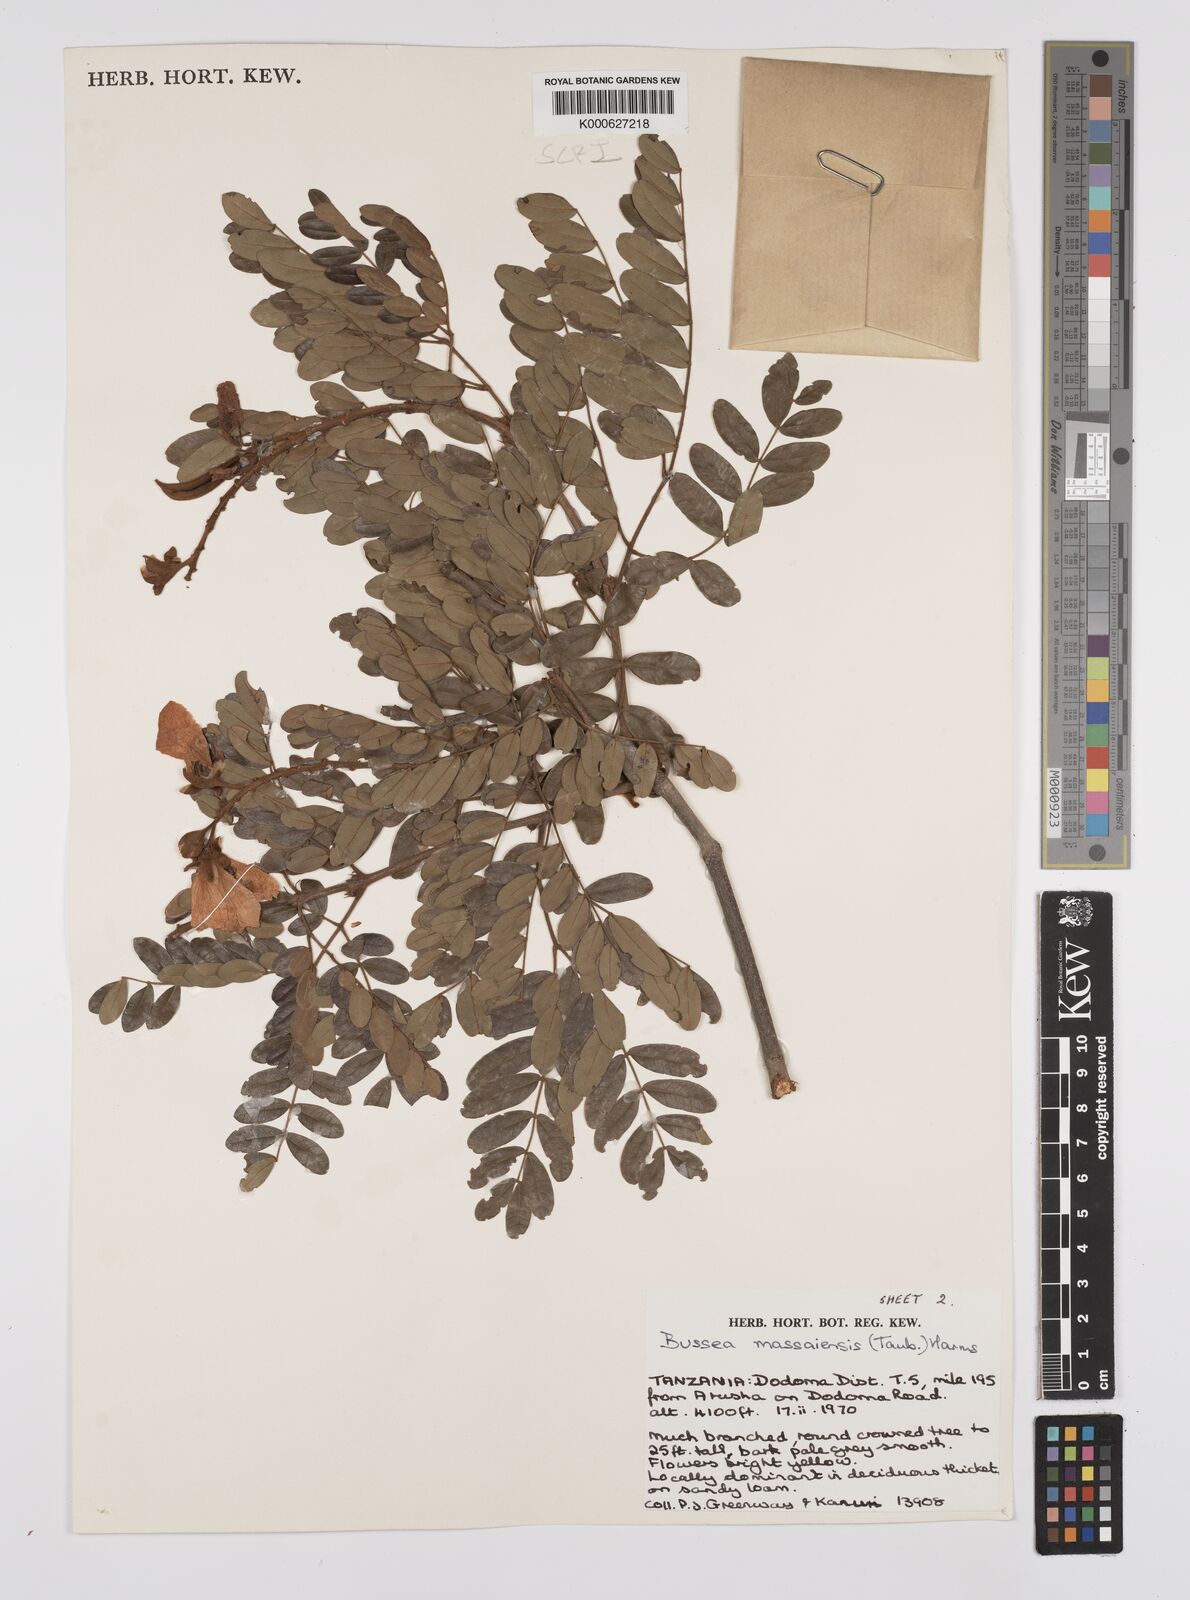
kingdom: Plantae
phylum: Tracheophyta
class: Magnoliopsida
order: Fabales
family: Fabaceae
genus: Bussea
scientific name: Bussea massaiensis
